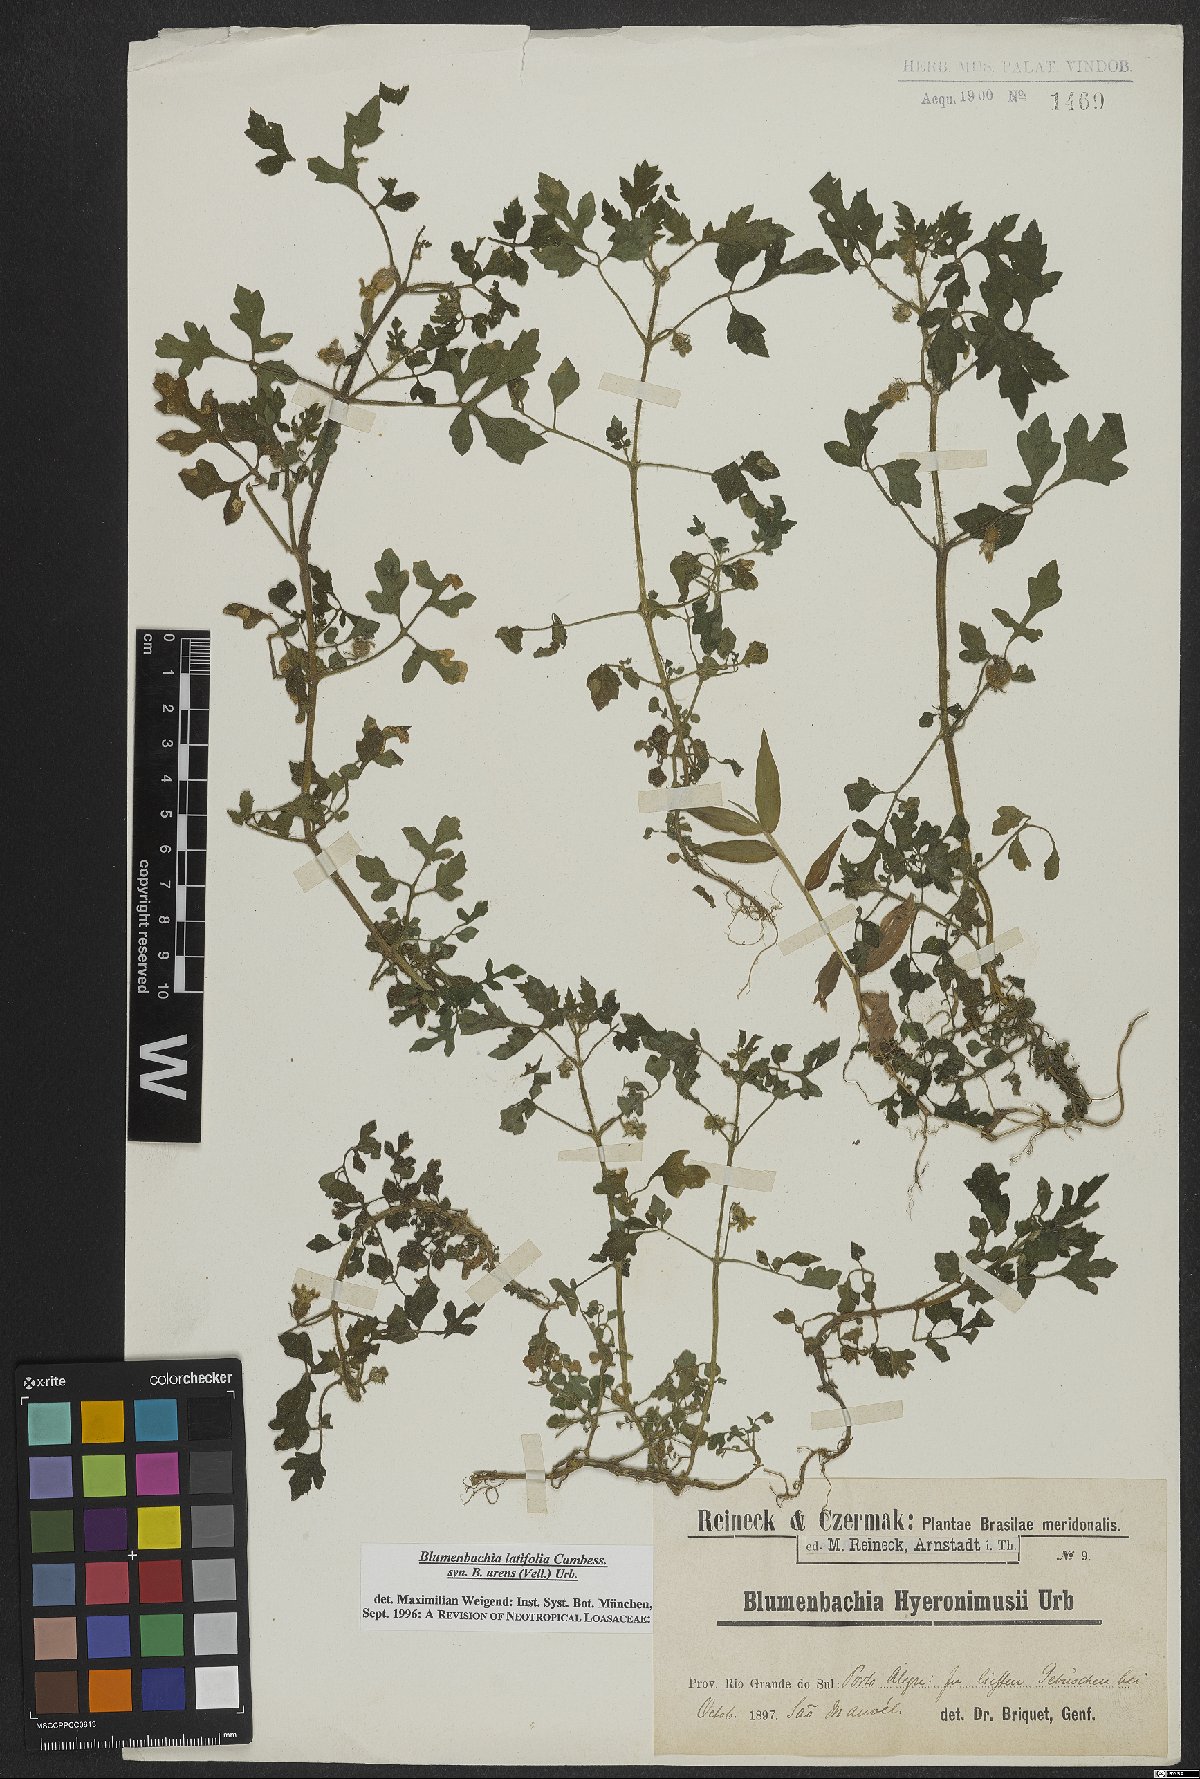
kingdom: Plantae
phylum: Tracheophyta
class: Magnoliopsida
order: Cornales
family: Loasaceae
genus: Blumenbachia
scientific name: Blumenbachia latifolia
